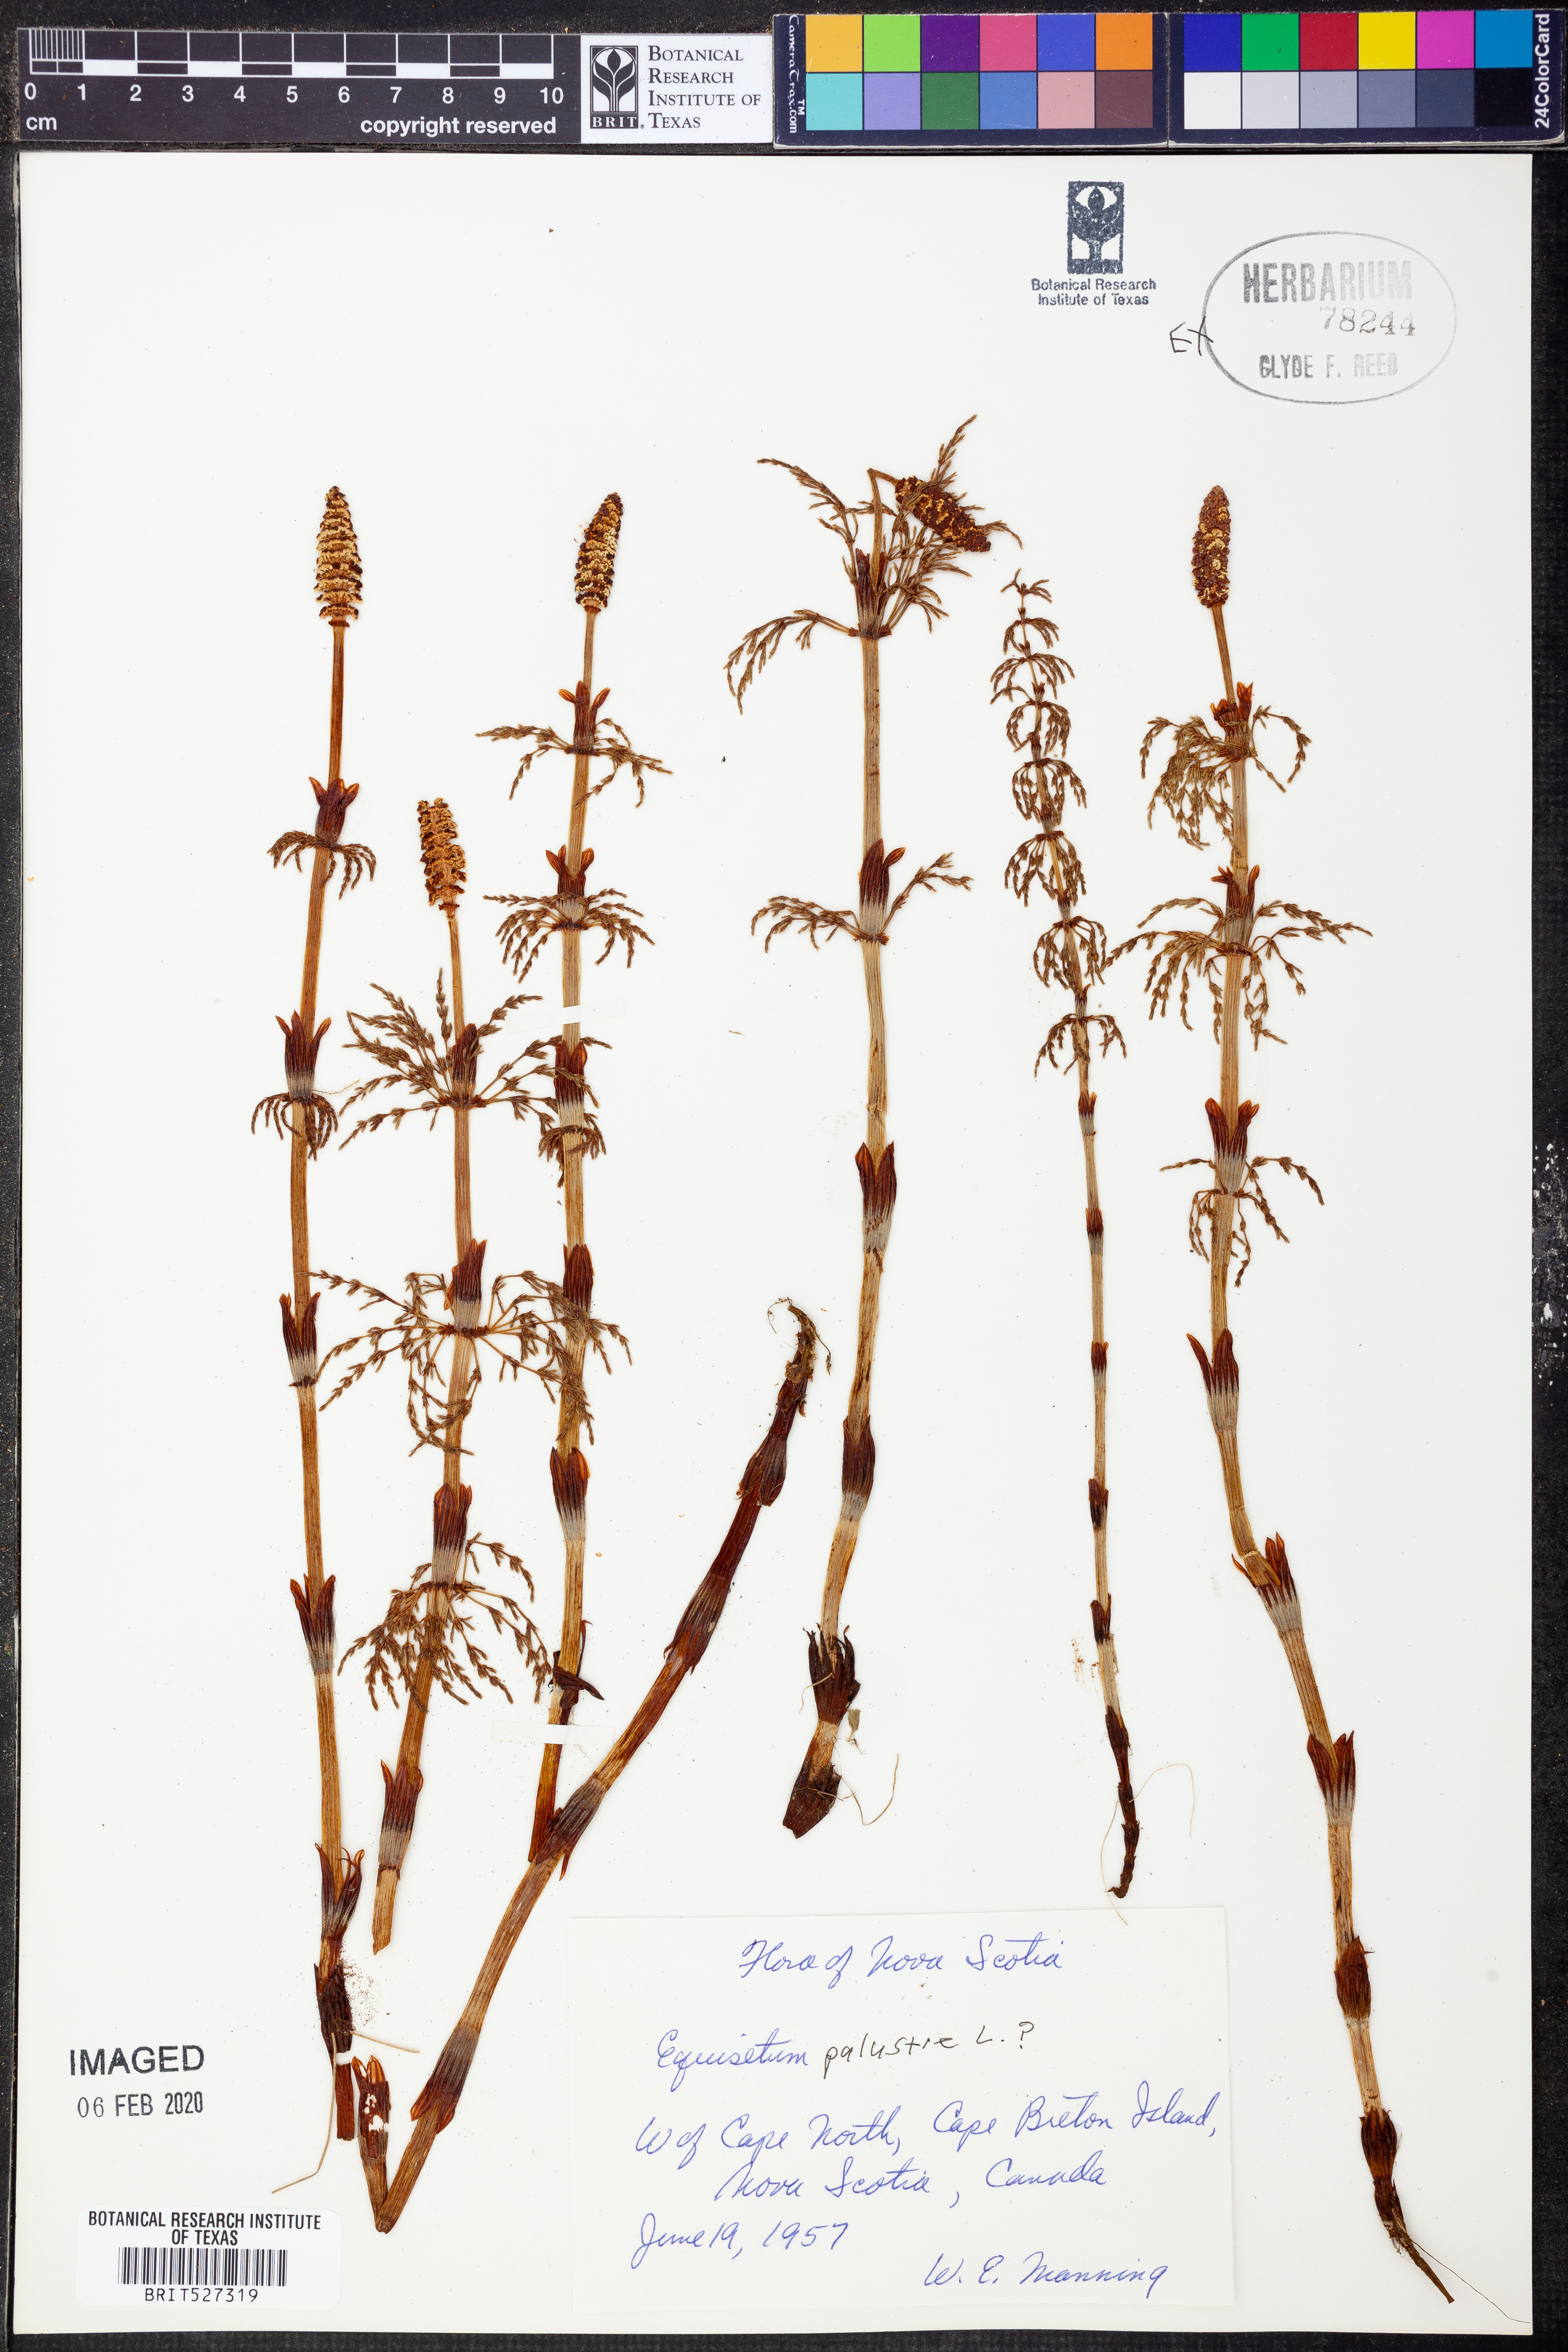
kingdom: Plantae
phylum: Tracheophyta
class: Polypodiopsida
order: Equisetales
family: Equisetaceae
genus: Equisetum
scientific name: Equisetum palustre
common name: Marsh horsetail
